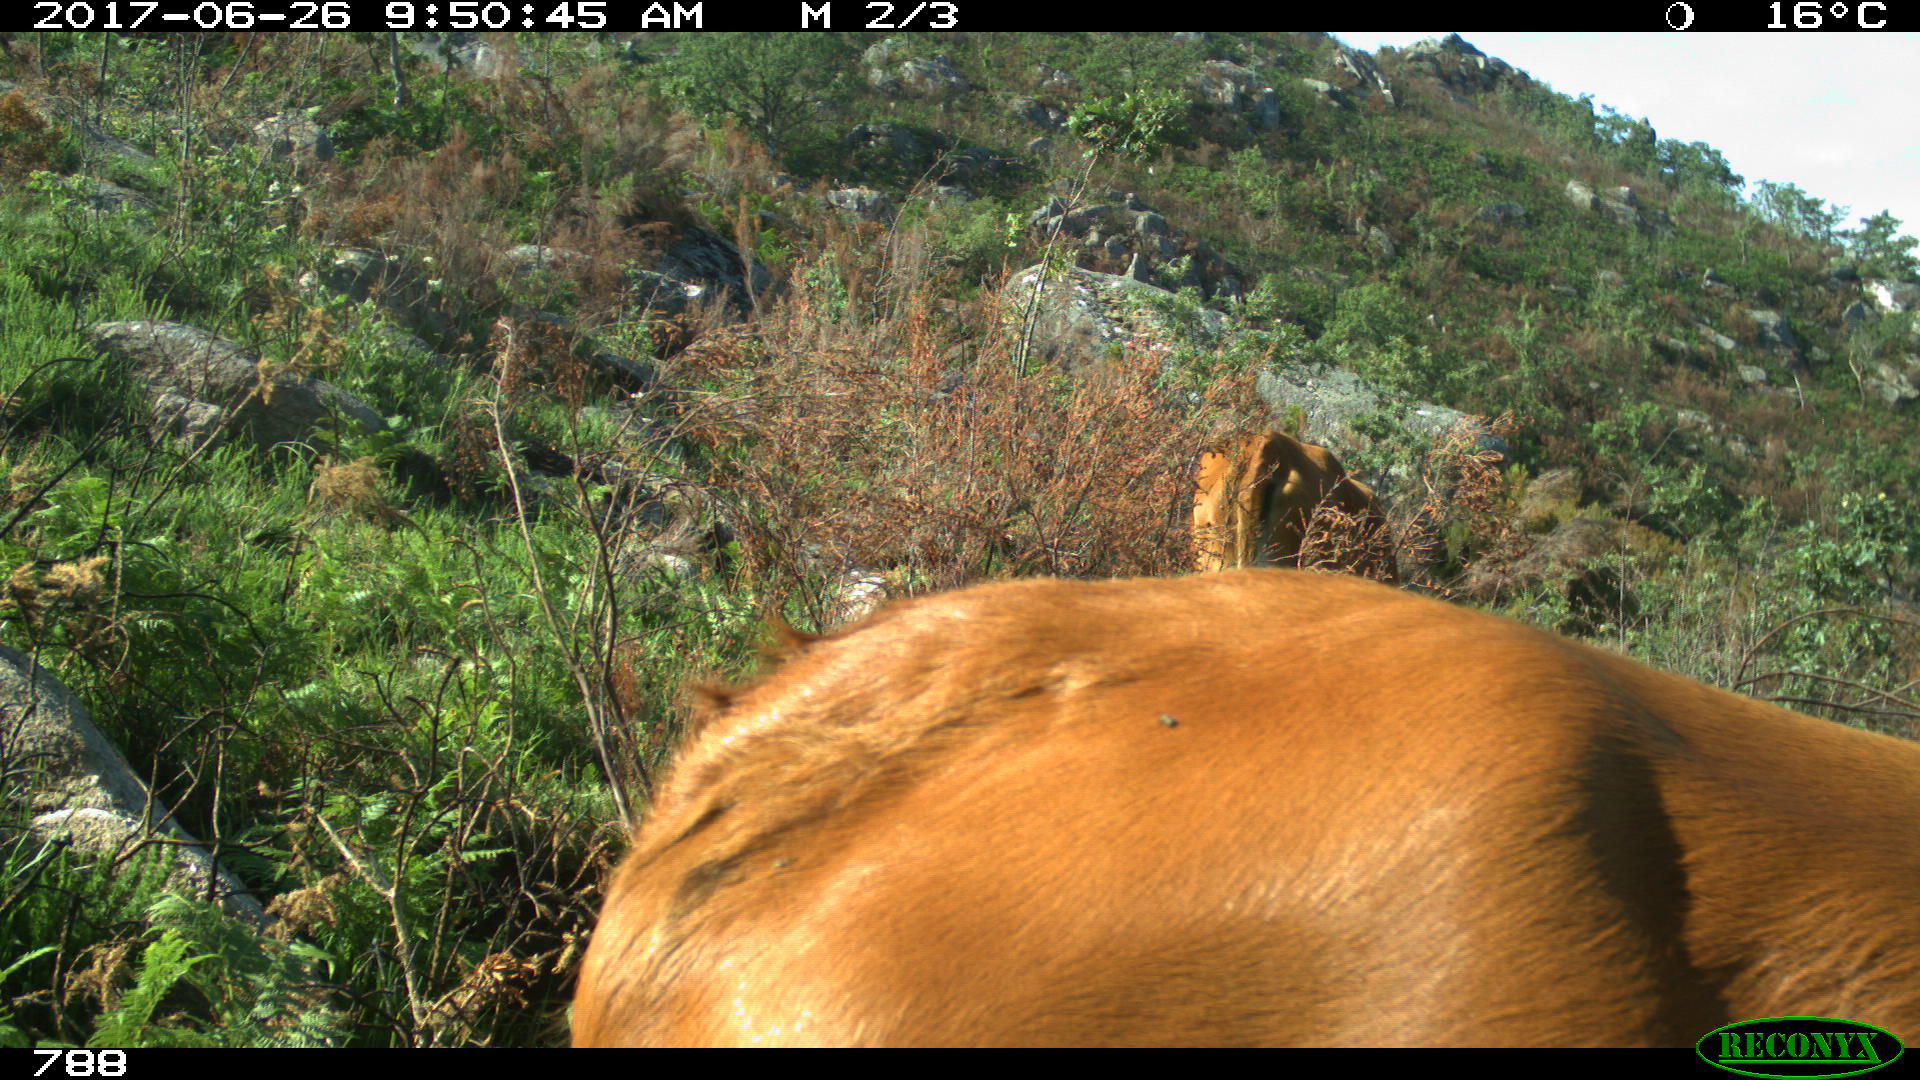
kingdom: Animalia
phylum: Chordata
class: Mammalia
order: Artiodactyla
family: Bovidae
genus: Bos
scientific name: Bos taurus
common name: Domesticated cattle
